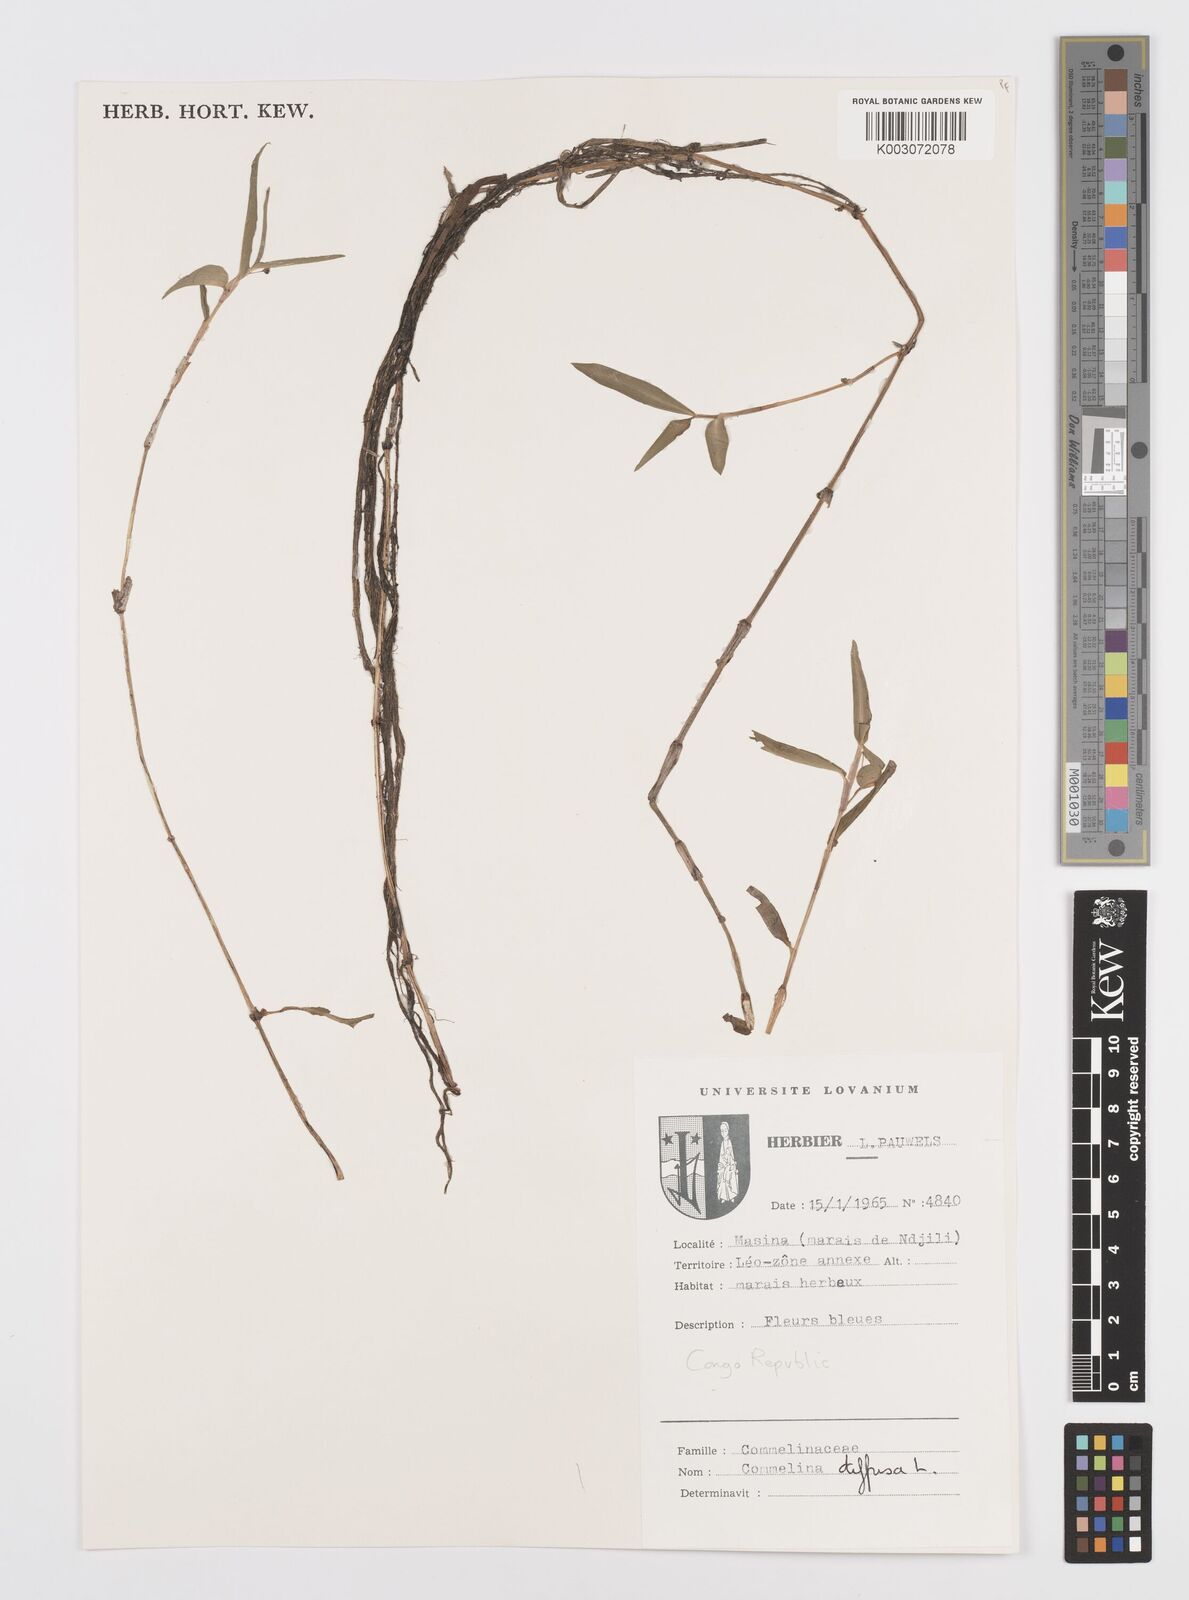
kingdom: Plantae
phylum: Tracheophyta
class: Liliopsida
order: Commelinales
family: Commelinaceae
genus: Commelina
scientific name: Commelina diffusa
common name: Climbing dayflower
